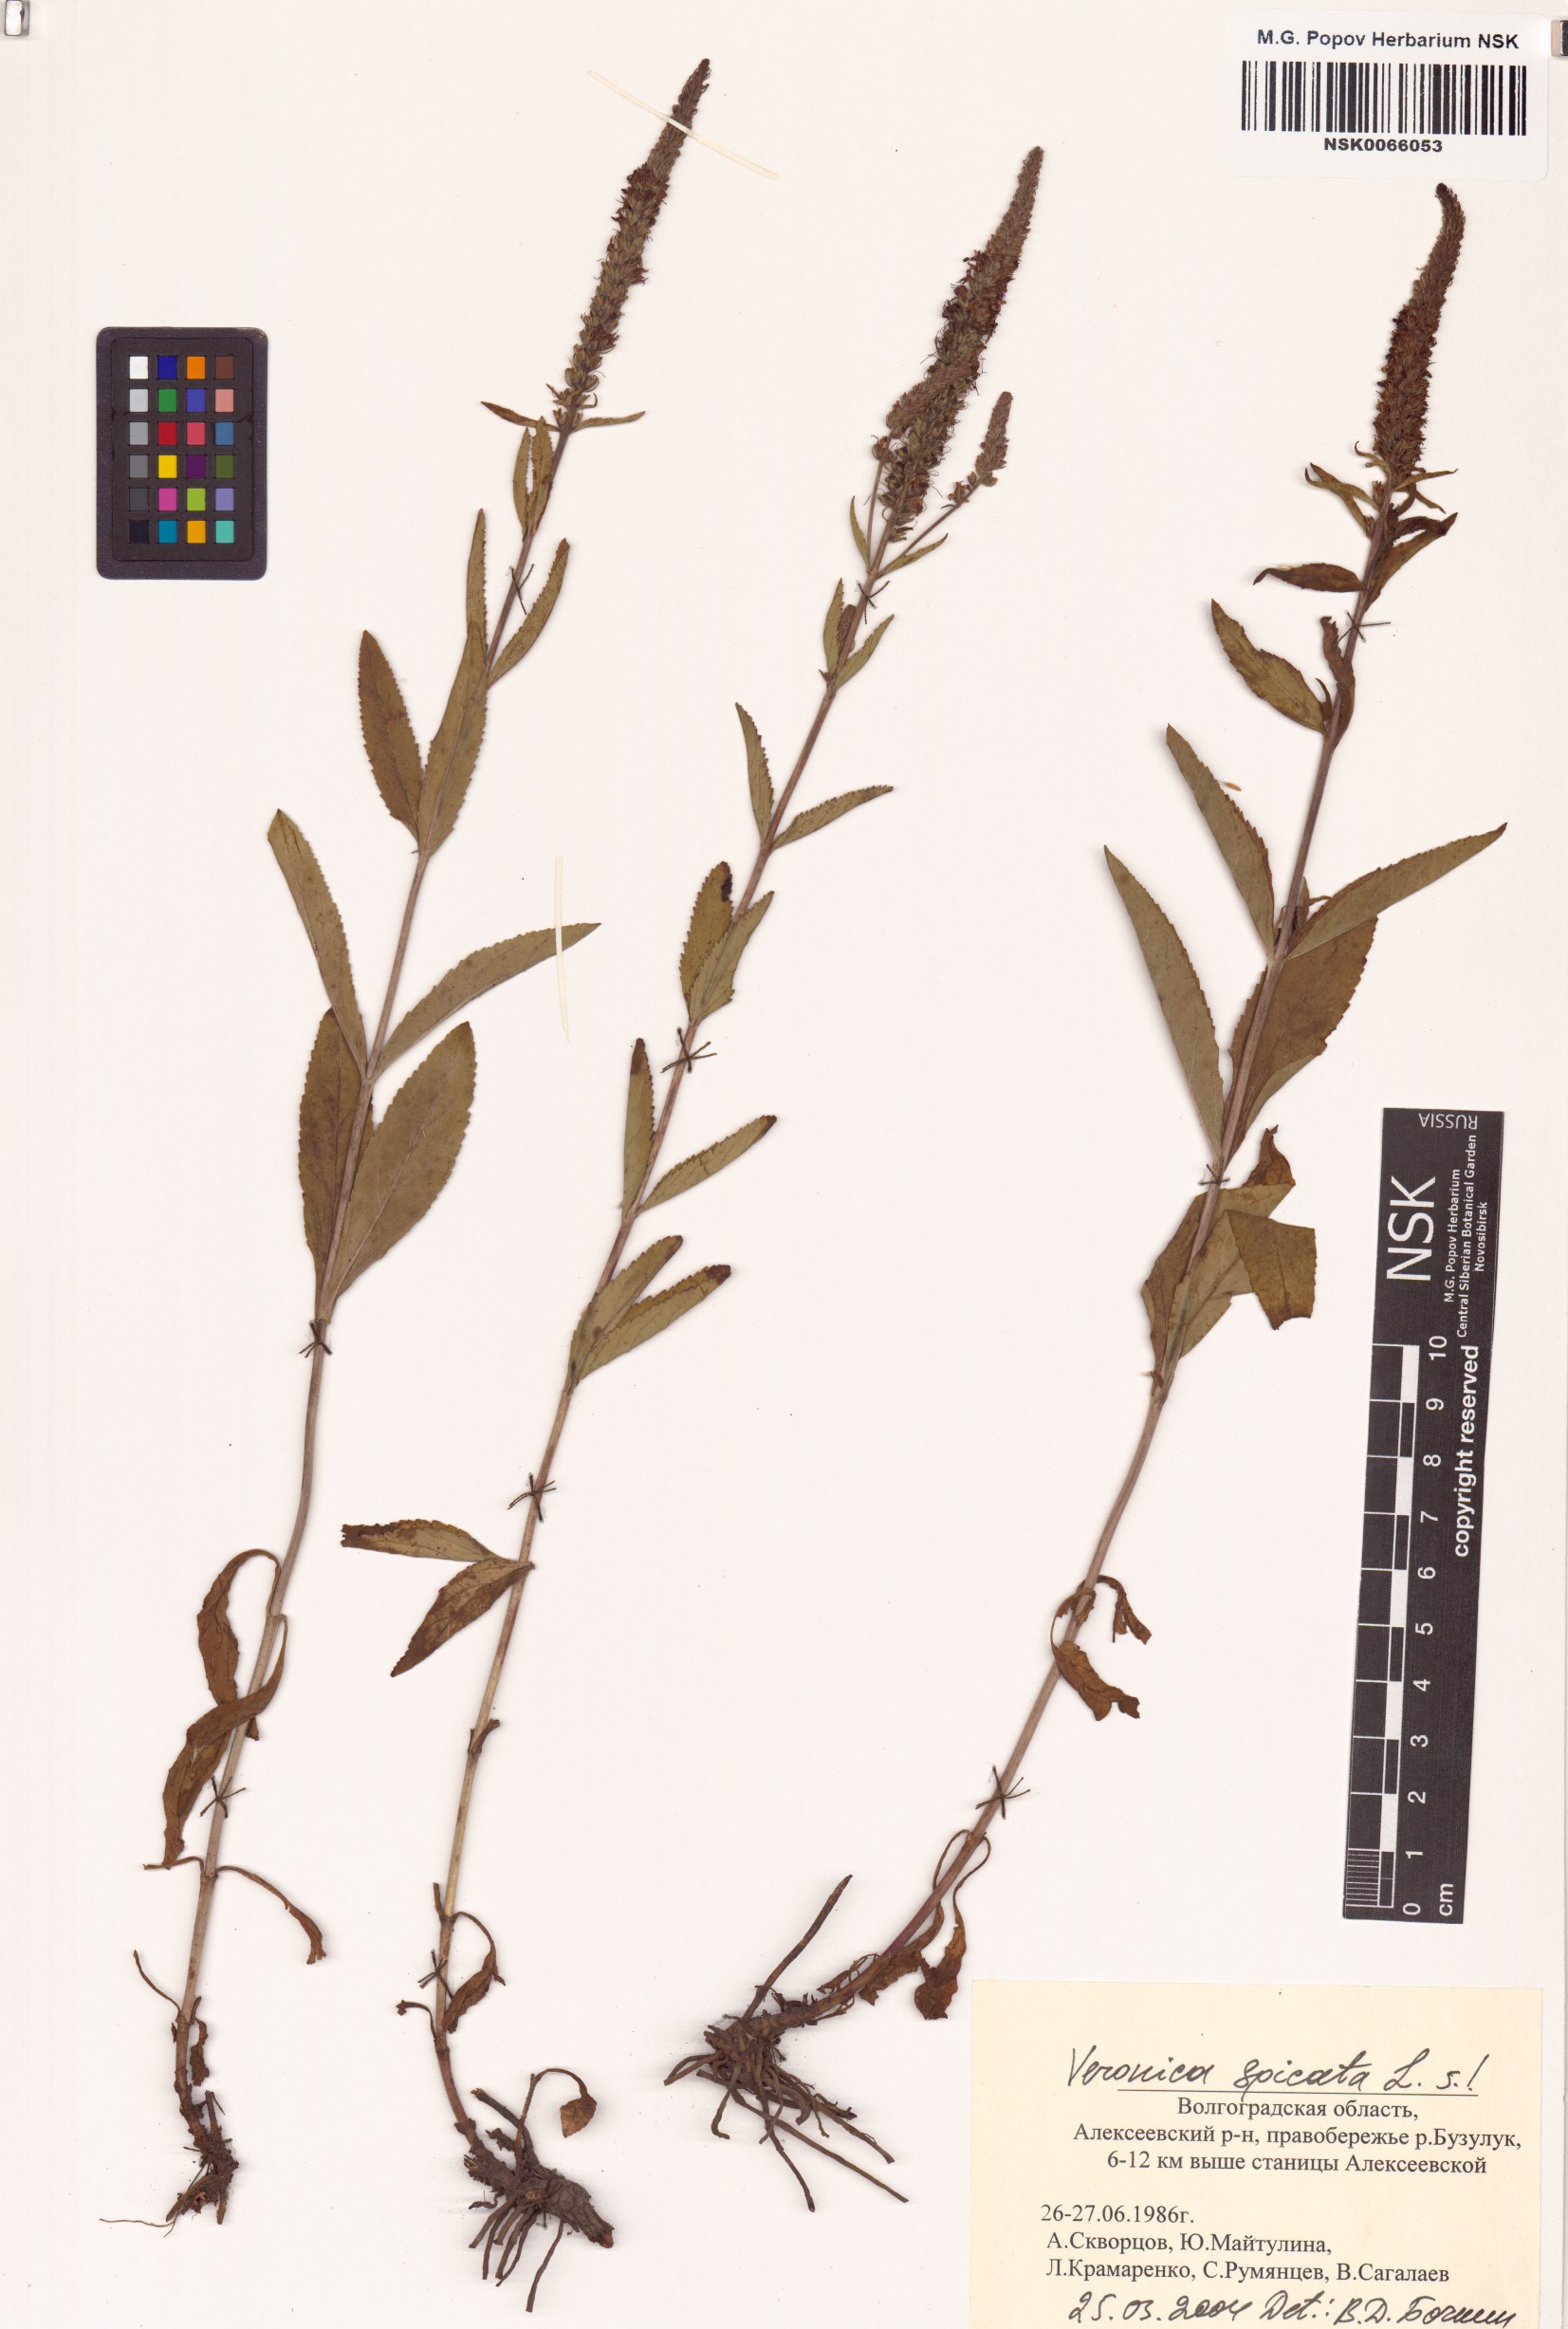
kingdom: Plantae
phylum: Tracheophyta
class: Magnoliopsida
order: Lamiales
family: Plantaginaceae
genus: Veronica
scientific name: Veronica spicata
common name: Spiked speedwell
